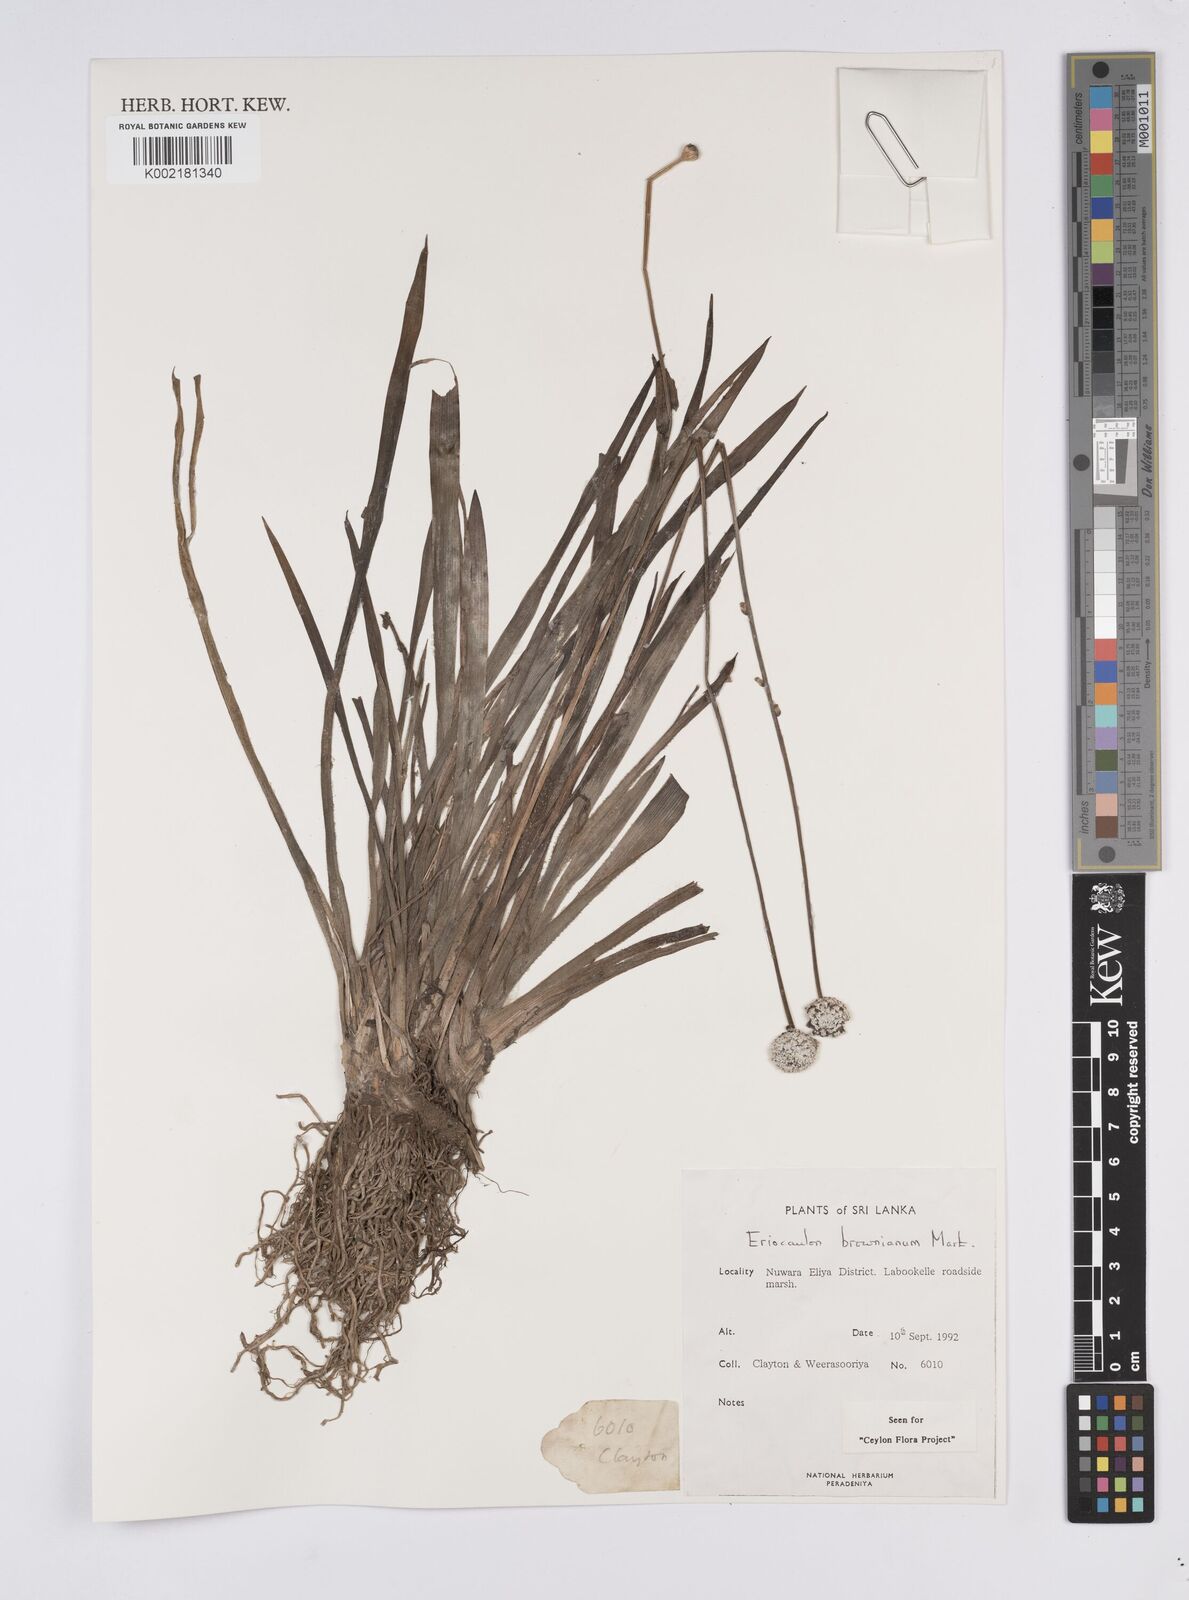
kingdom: Plantae
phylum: Tracheophyta
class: Liliopsida
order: Poales
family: Eriocaulaceae
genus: Eriocaulon
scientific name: Eriocaulon brownianum
